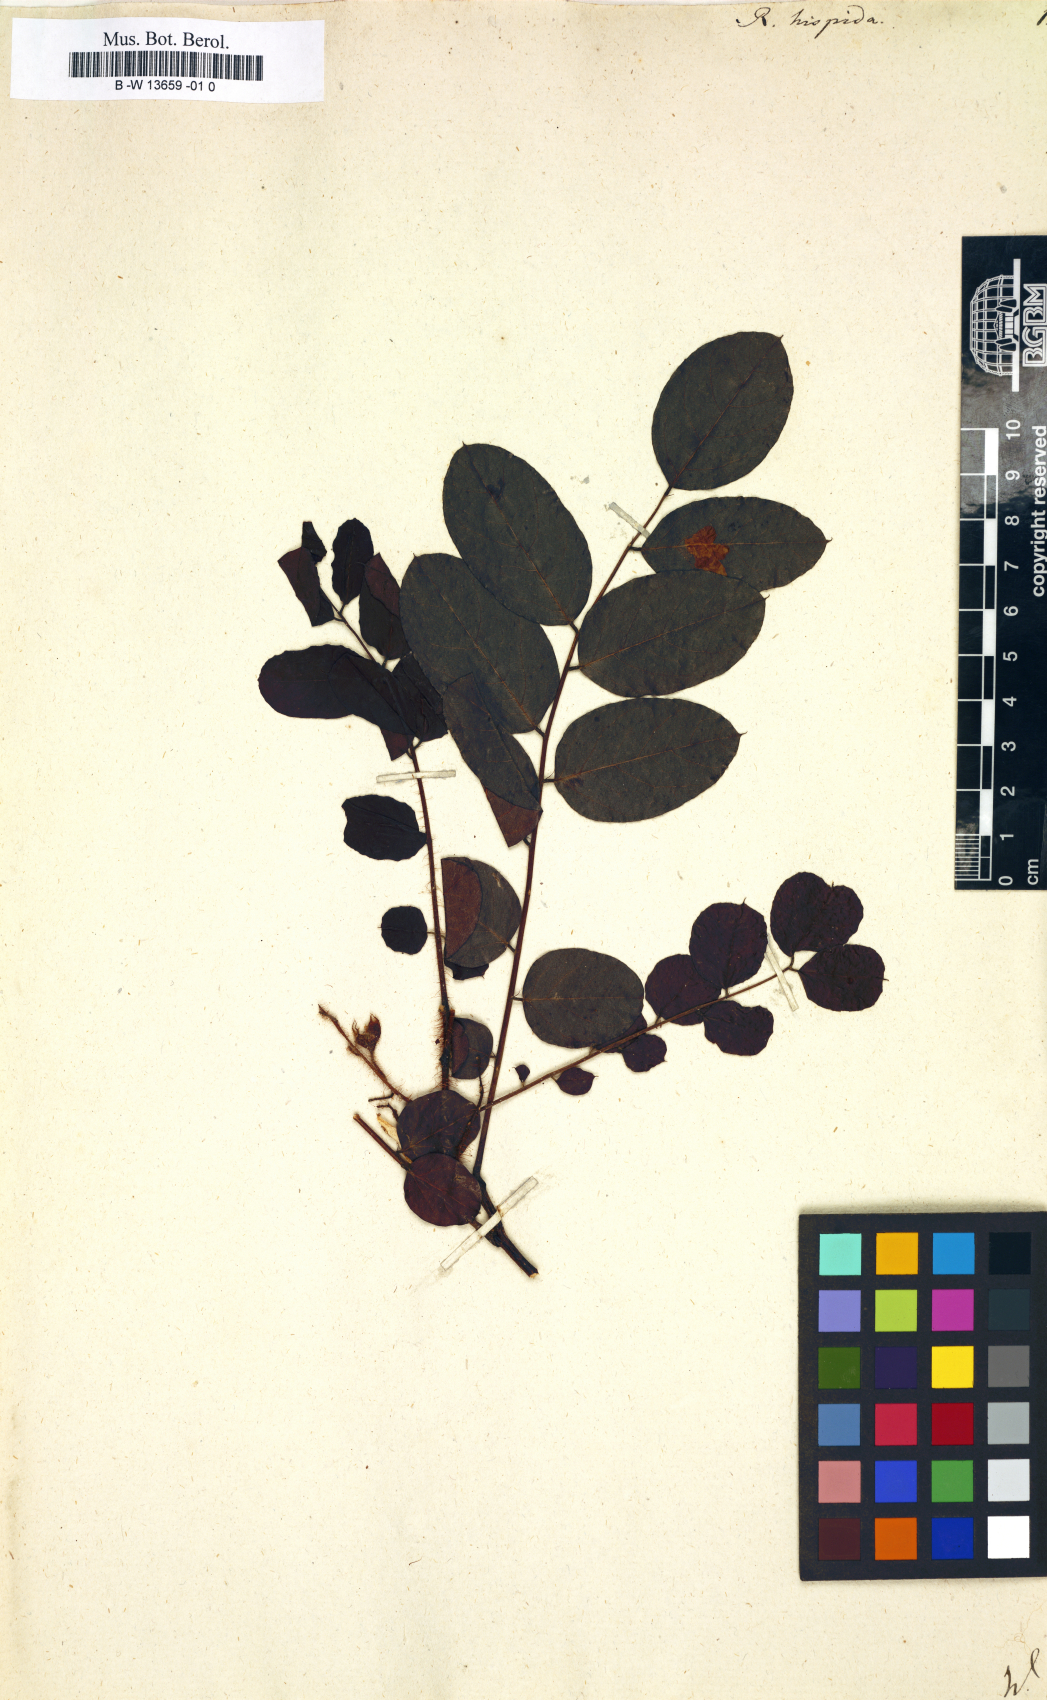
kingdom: Plantae
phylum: Tracheophyta
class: Magnoliopsida
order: Fabales
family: Fabaceae
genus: Robinia
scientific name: Robinia hispida
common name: Bristly locust
